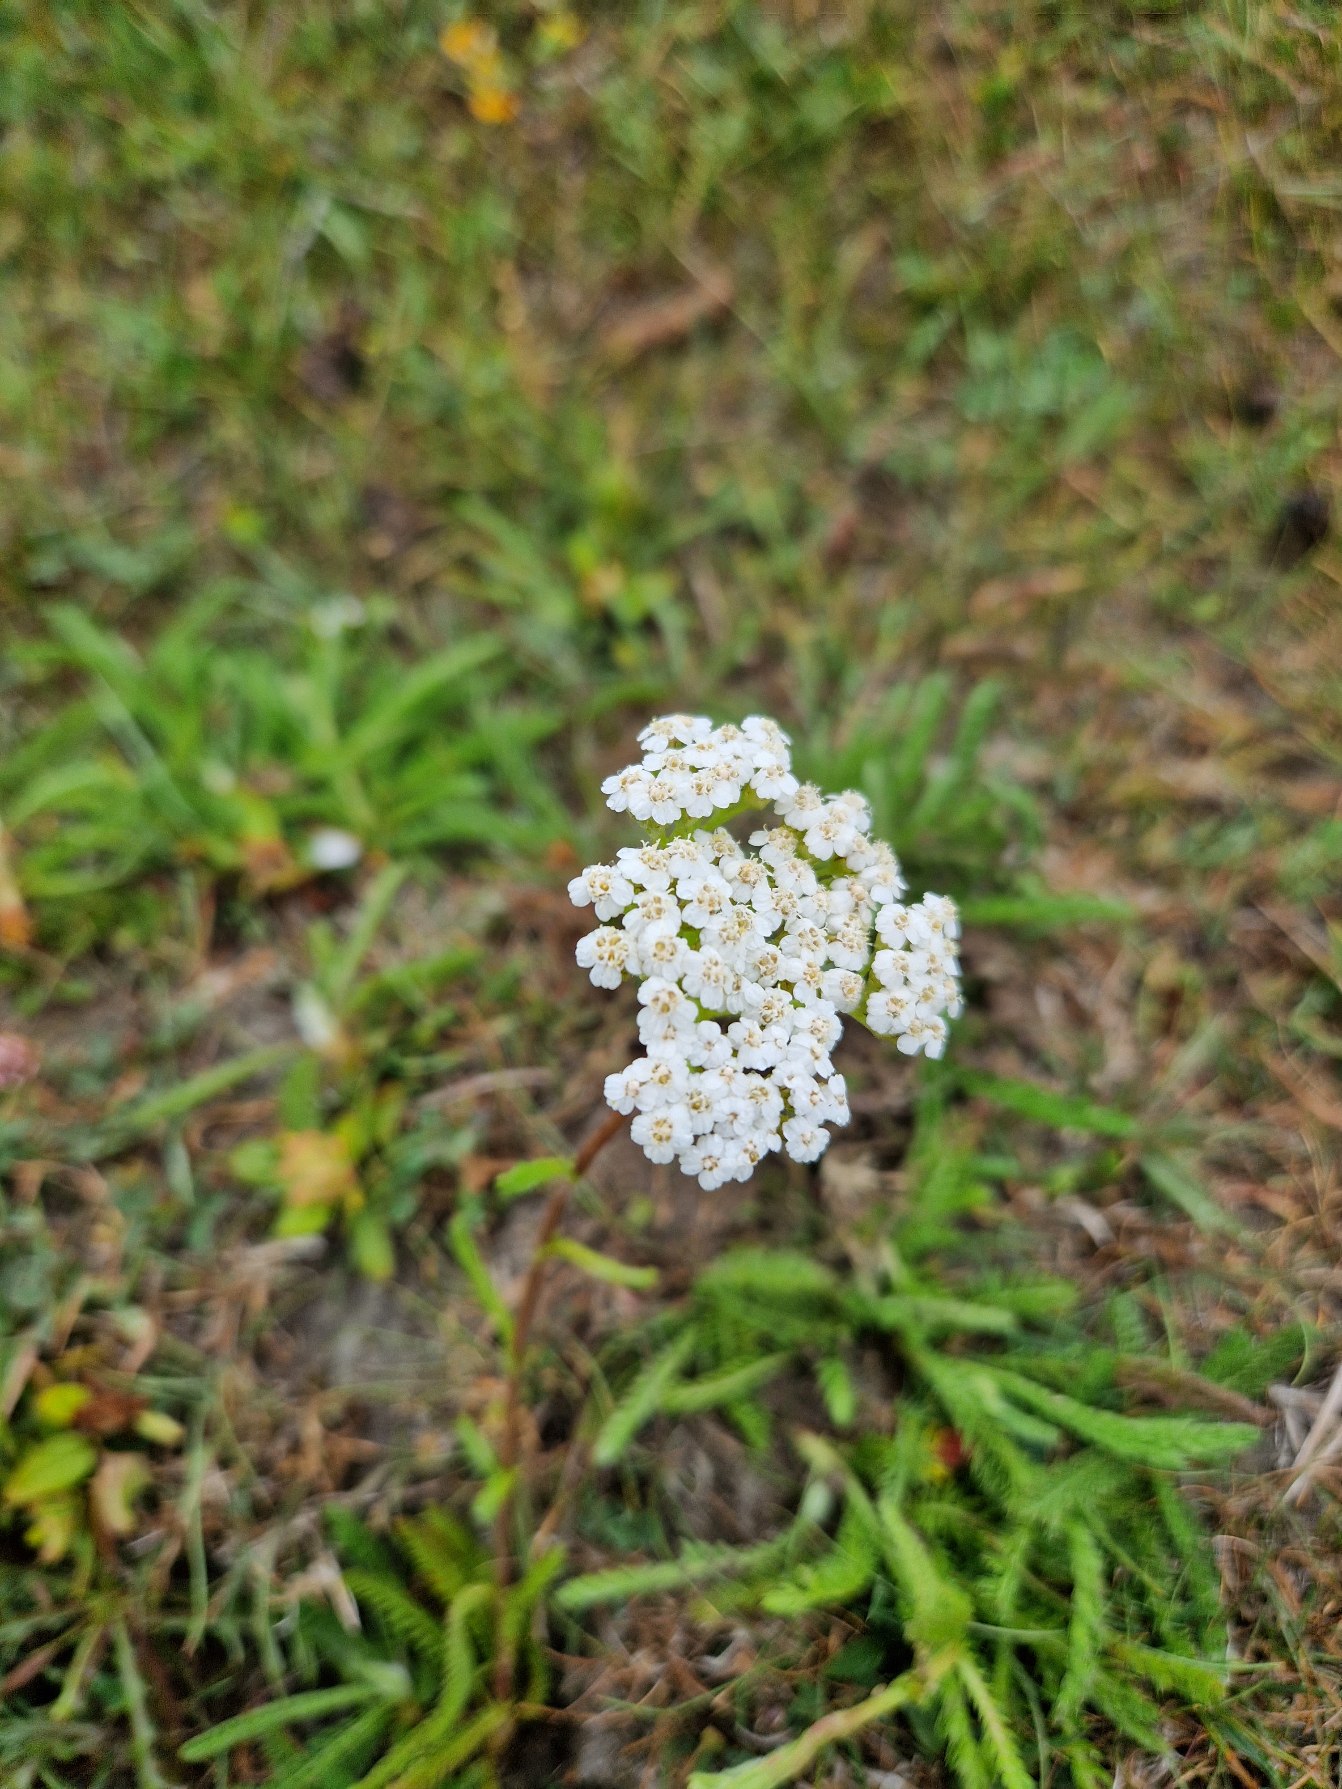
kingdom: Plantae
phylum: Tracheophyta
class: Magnoliopsida
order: Asterales
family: Asteraceae
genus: Achillea
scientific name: Achillea millefolium
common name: Almindelig røllike
